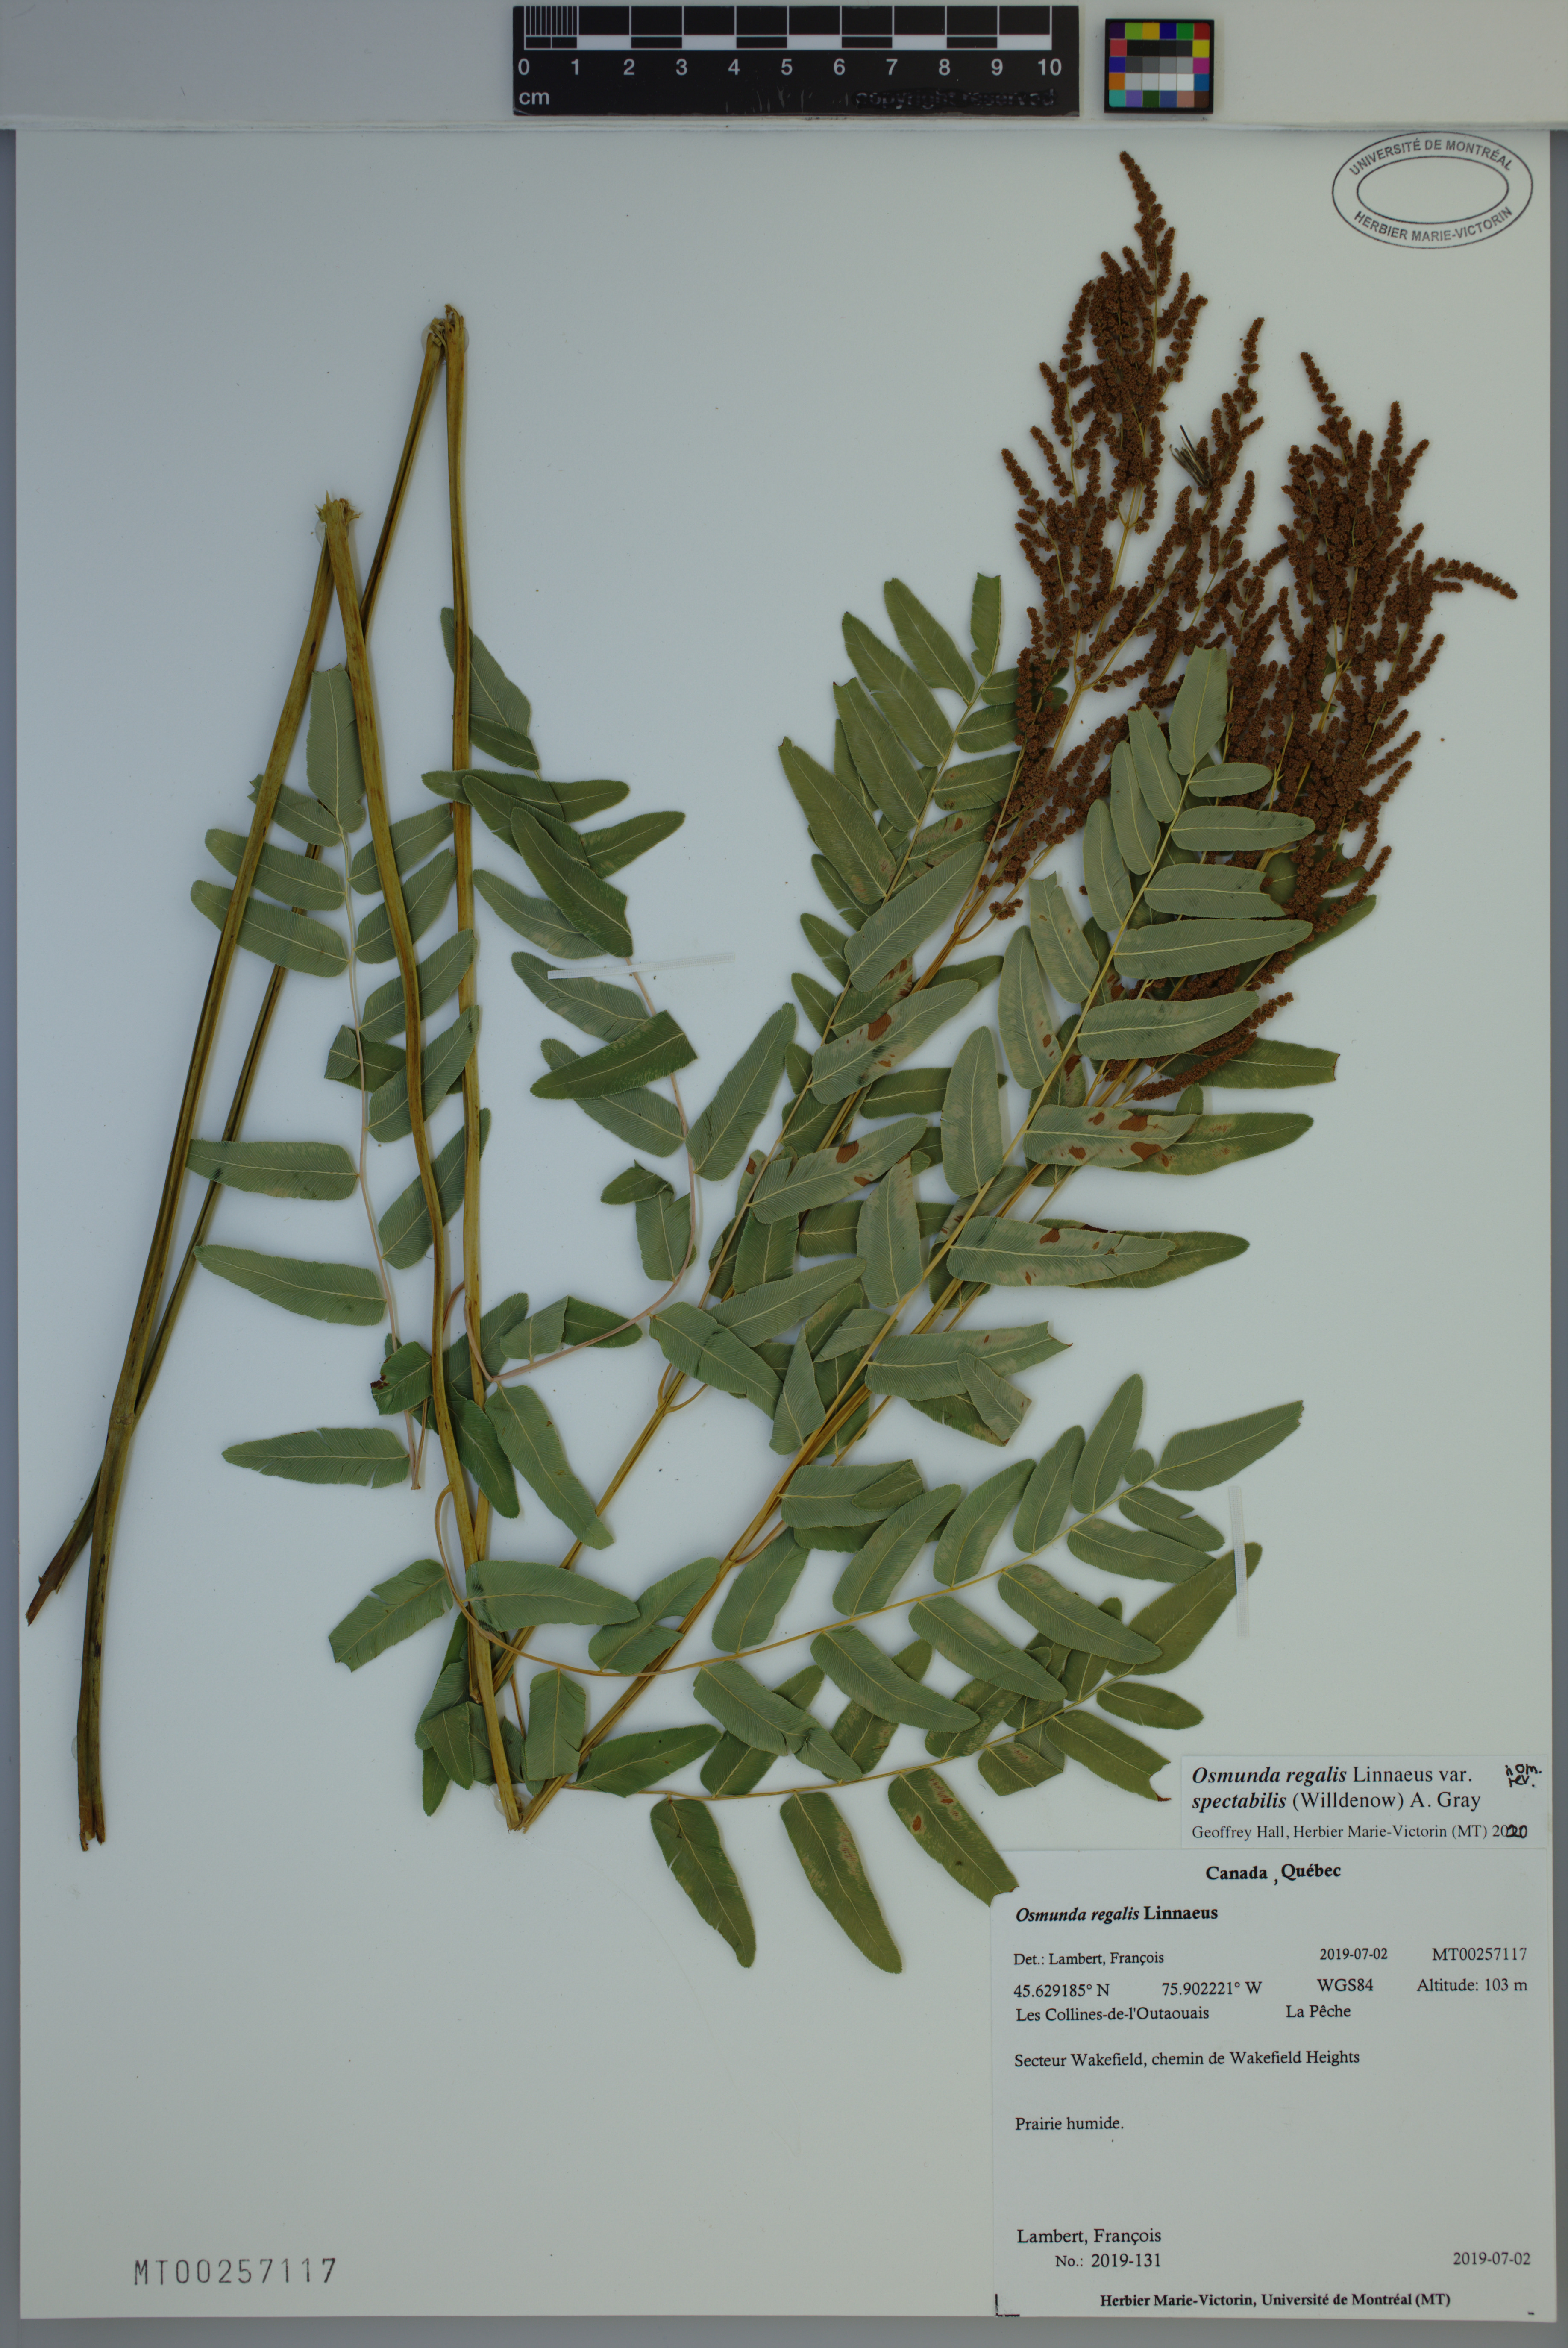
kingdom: Plantae
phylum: Tracheophyta
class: Polypodiopsida
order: Osmundales
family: Osmundaceae
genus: Osmunda
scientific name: Osmunda spectabilis
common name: American royal fern
